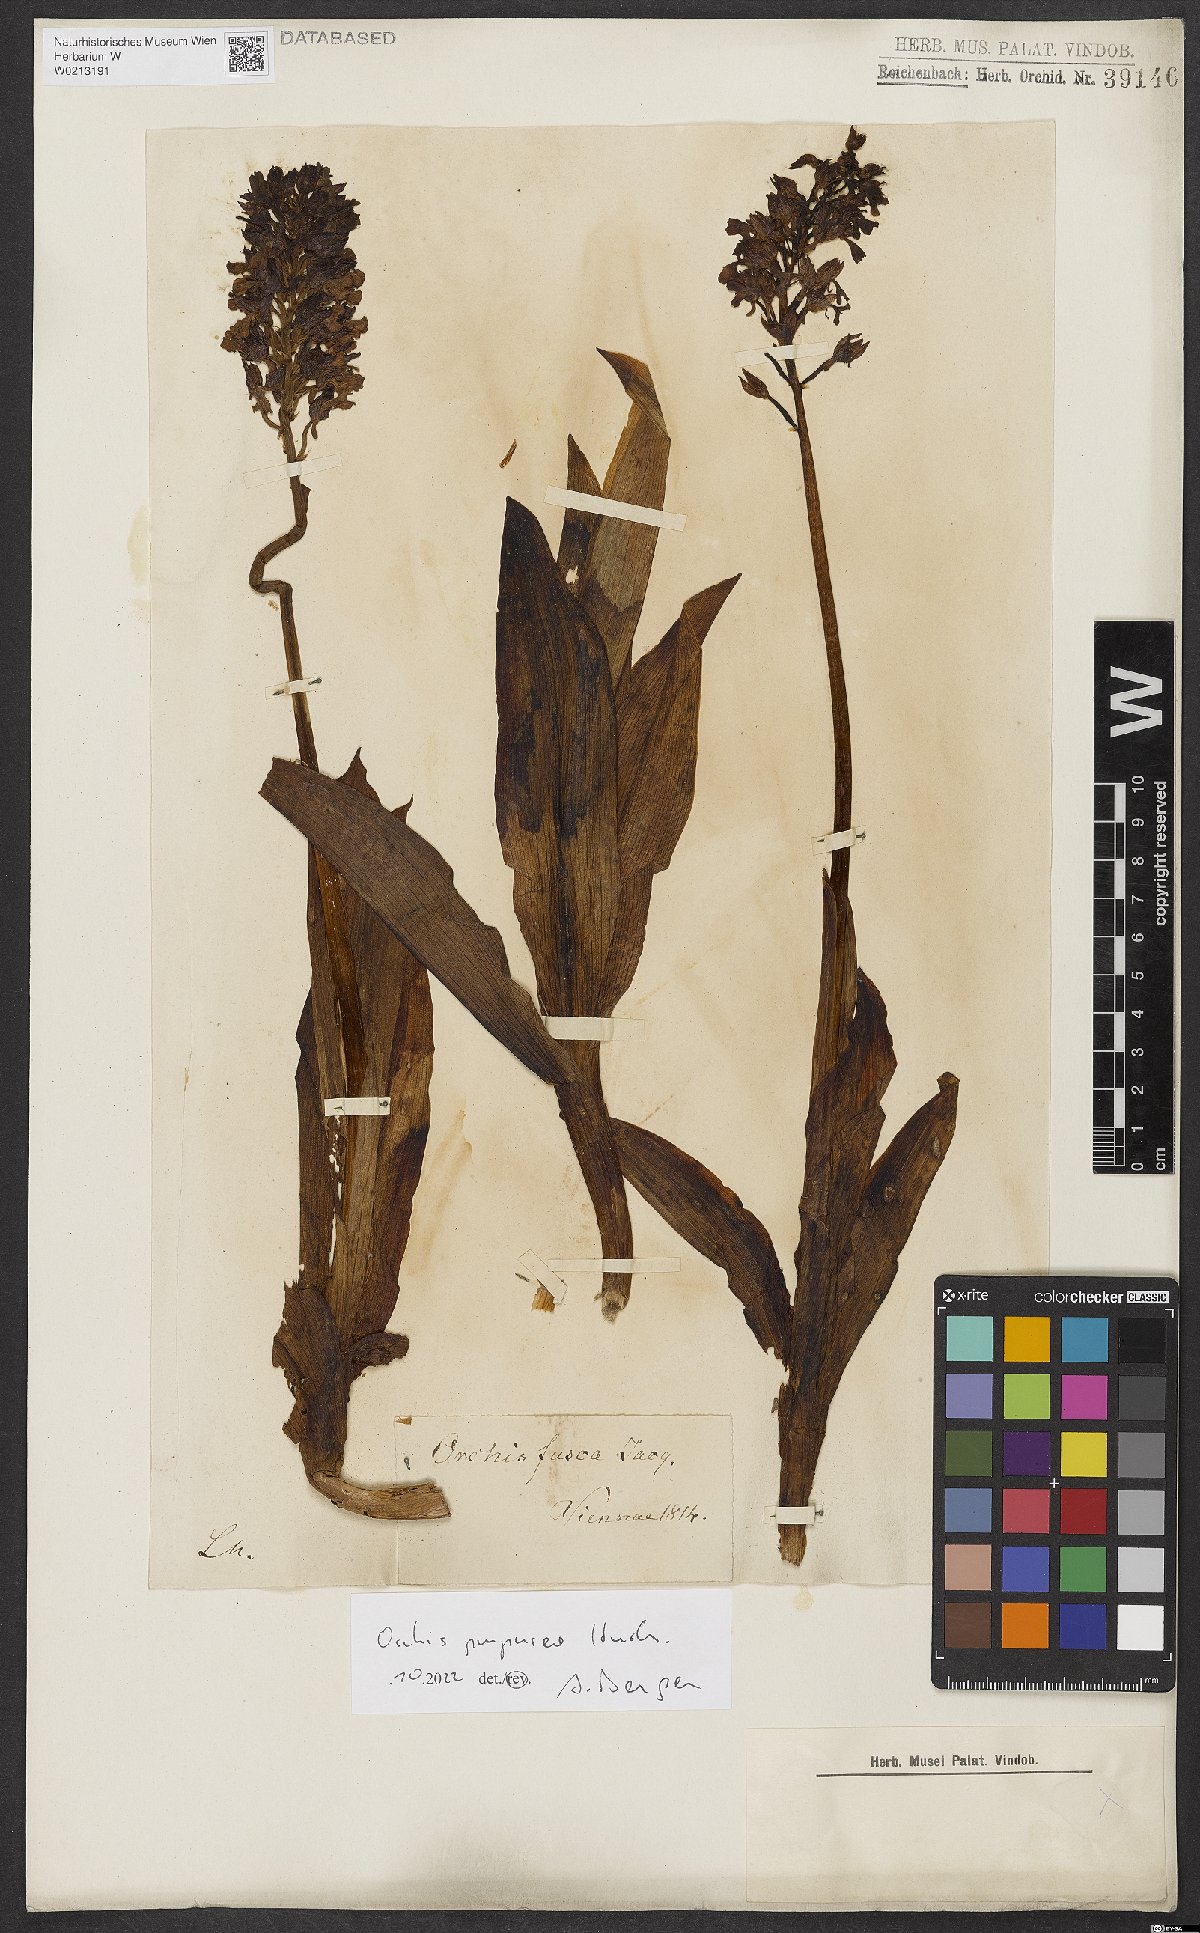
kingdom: Plantae
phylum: Tracheophyta
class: Liliopsida
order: Asparagales
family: Orchidaceae
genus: Orchis
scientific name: Orchis purpurea
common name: Lady orchid
